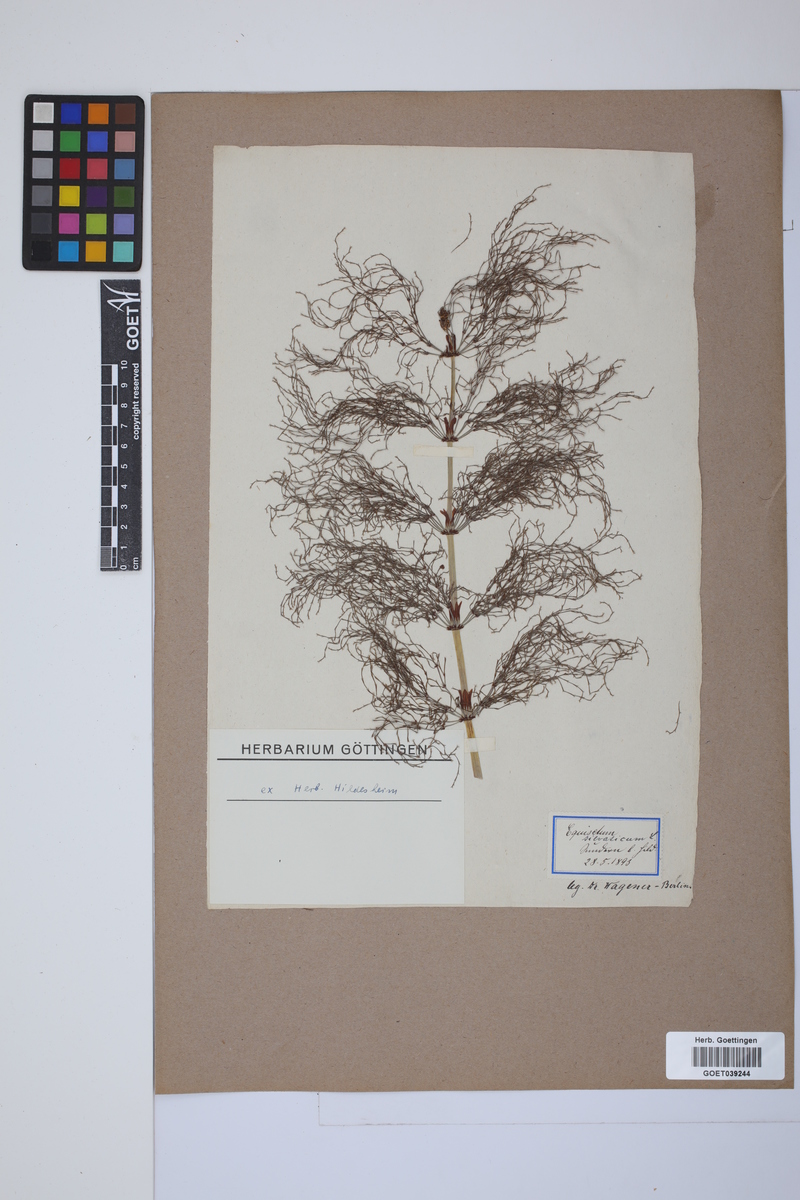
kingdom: Plantae
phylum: Tracheophyta
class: Polypodiopsida
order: Equisetales
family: Equisetaceae
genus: Equisetum
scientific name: Equisetum sylvaticum
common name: Wood horsetail
